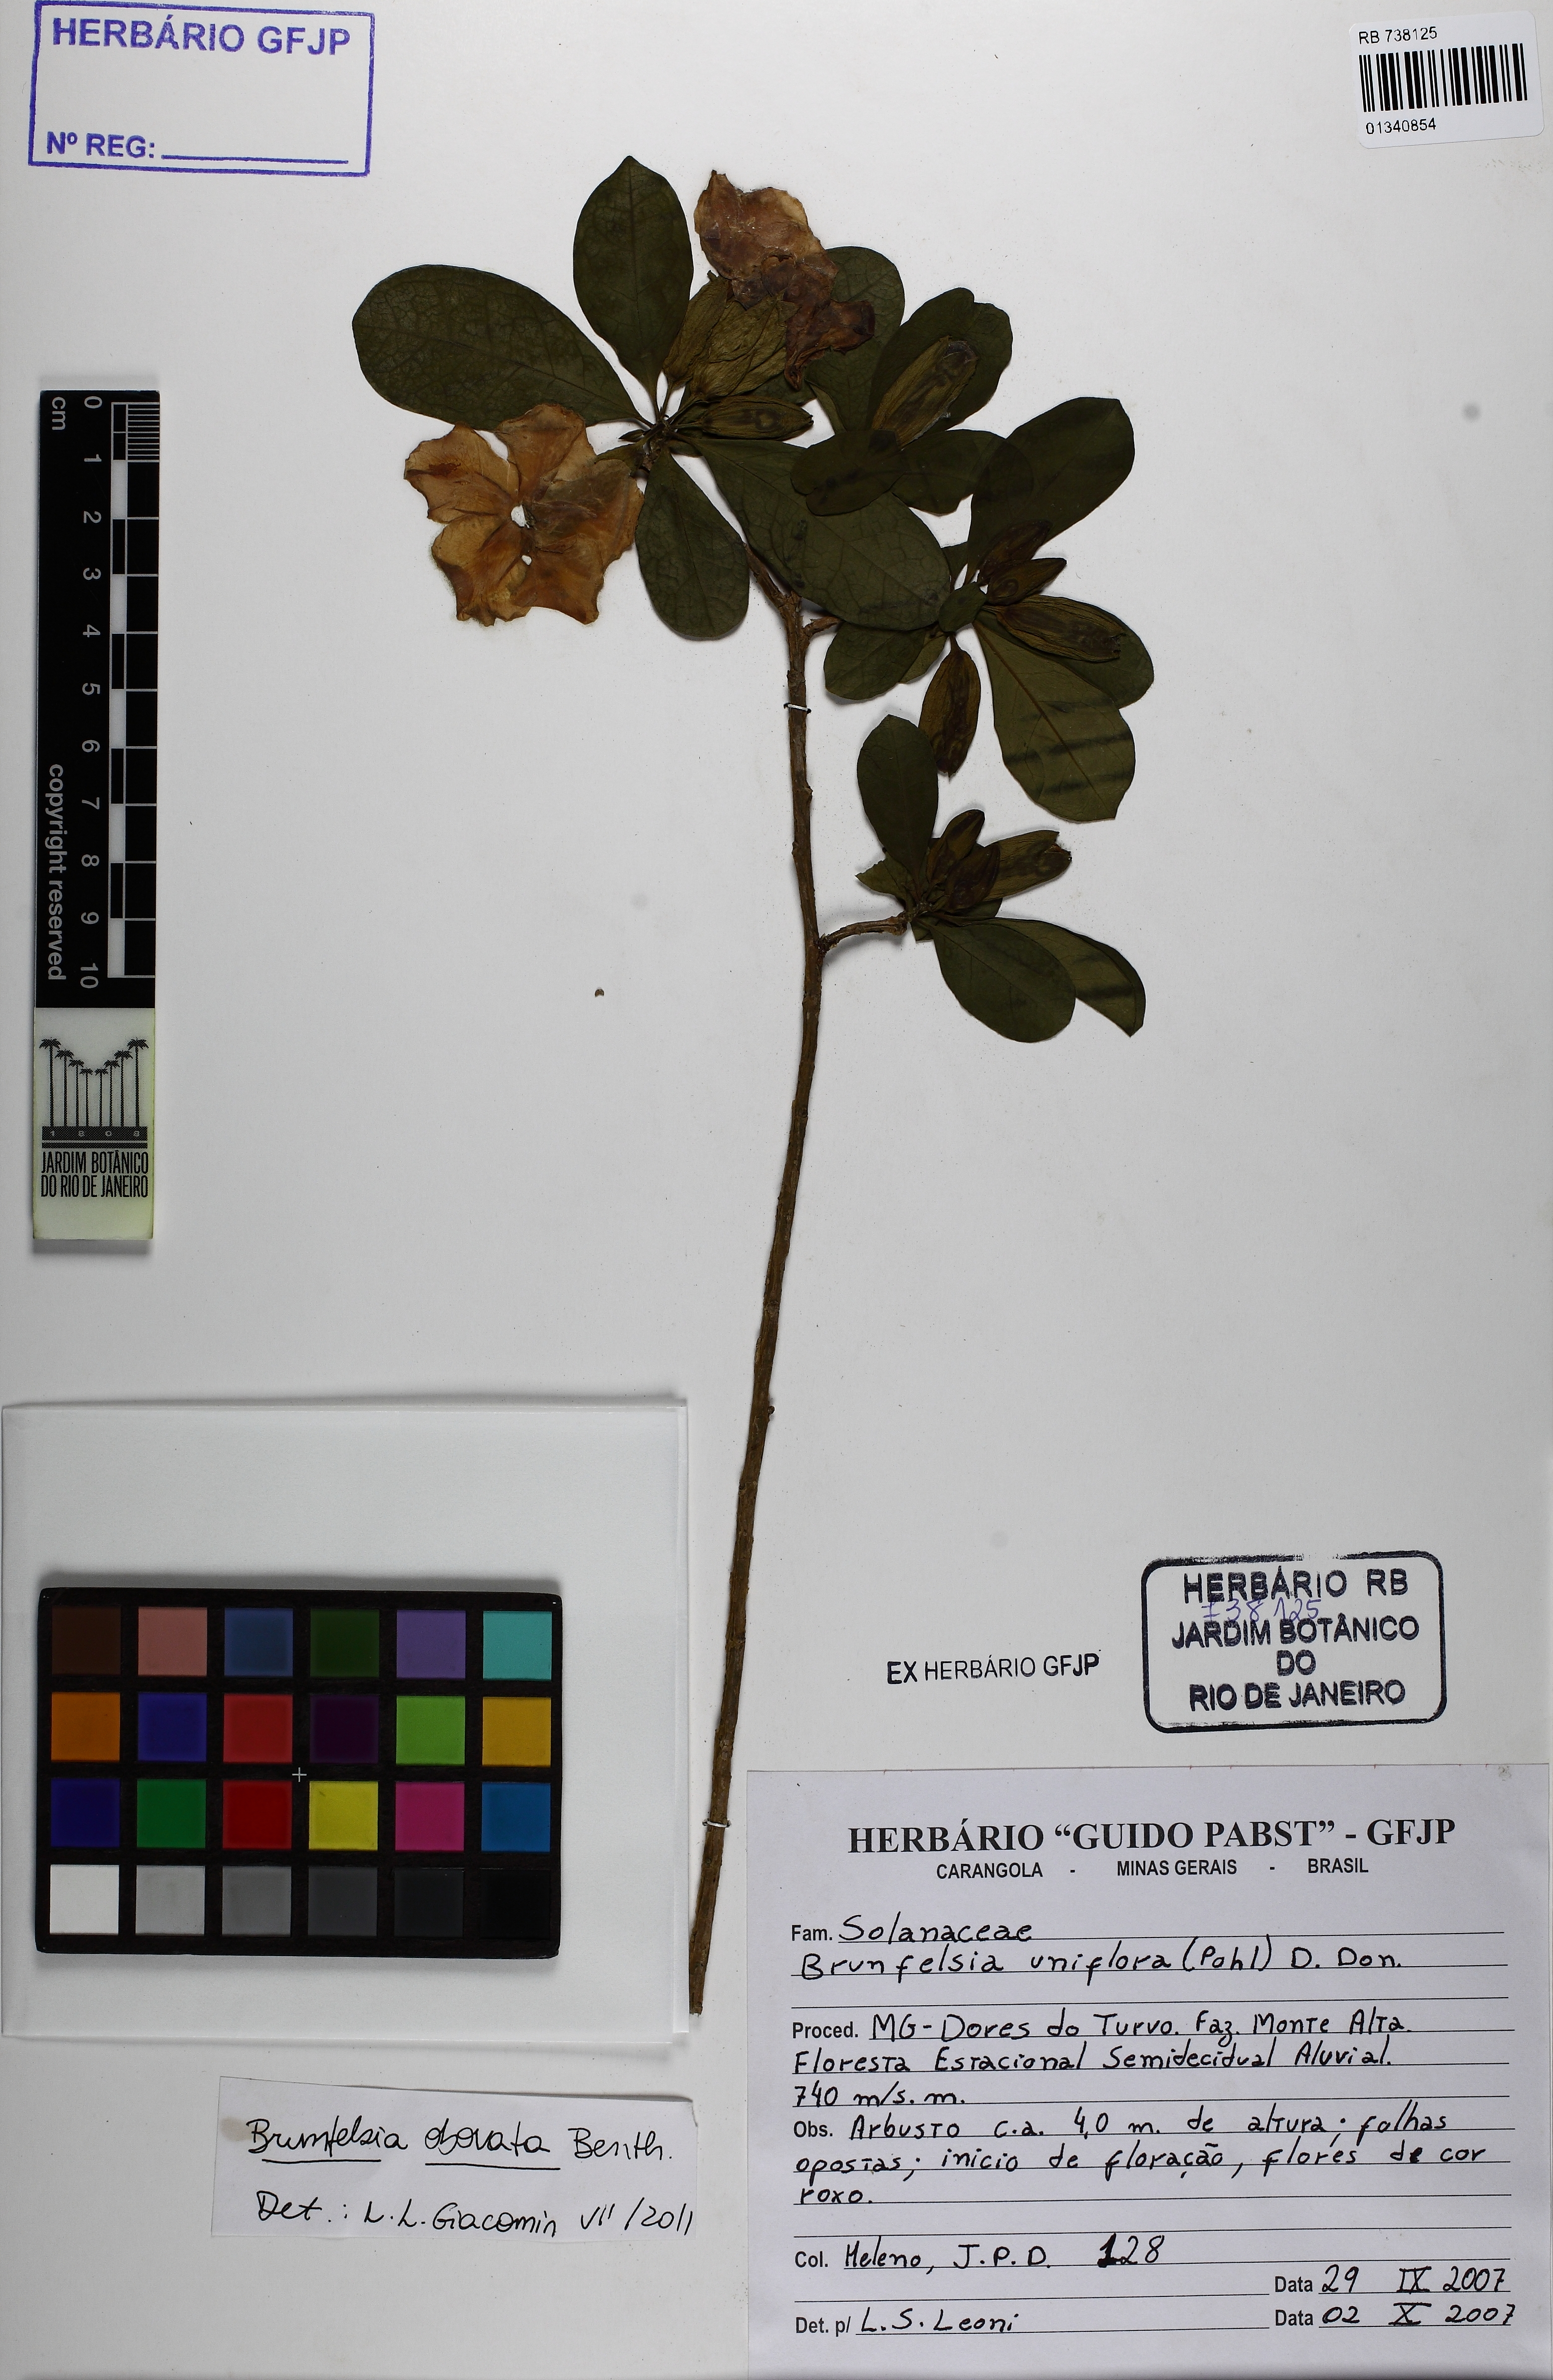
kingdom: Plantae
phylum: Tracheophyta
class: Magnoliopsida
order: Solanales
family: Solanaceae
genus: Brunfelsia
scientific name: Brunfelsia obovata
